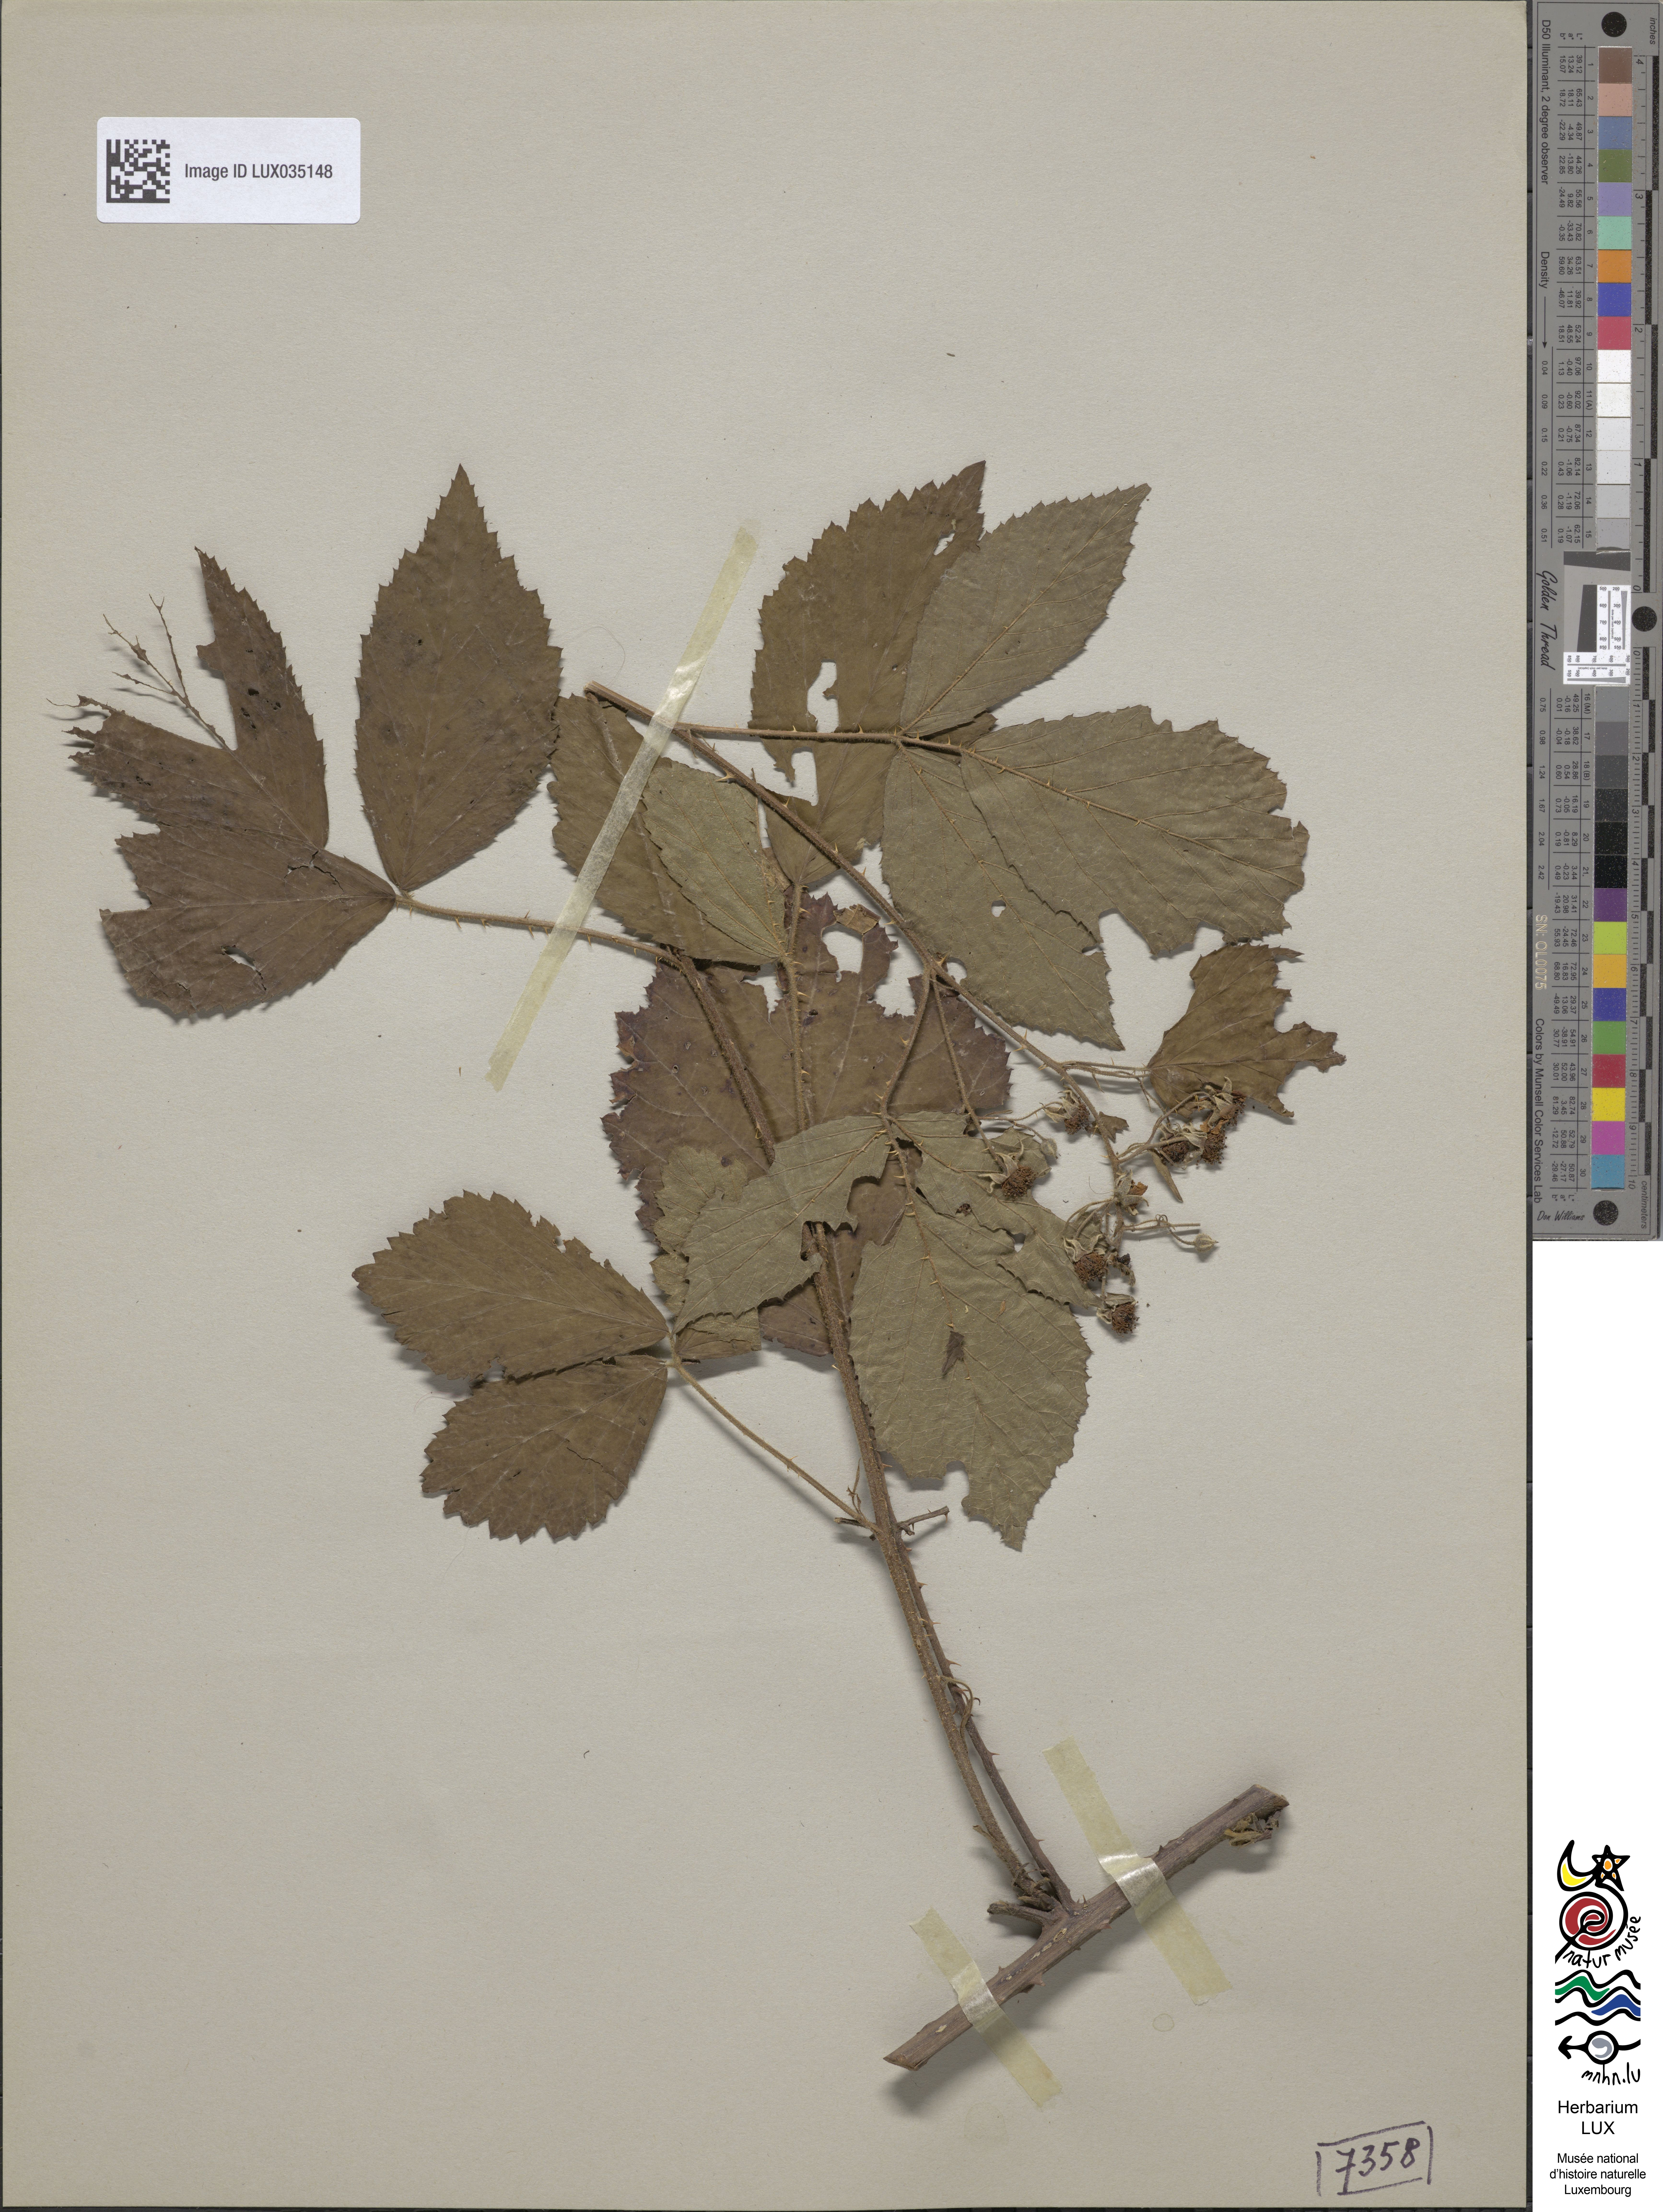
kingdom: Plantae
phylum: Tracheophyta
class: Magnoliopsida
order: Rosales
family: Rosaceae
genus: Rubus
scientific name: Rubus radula
